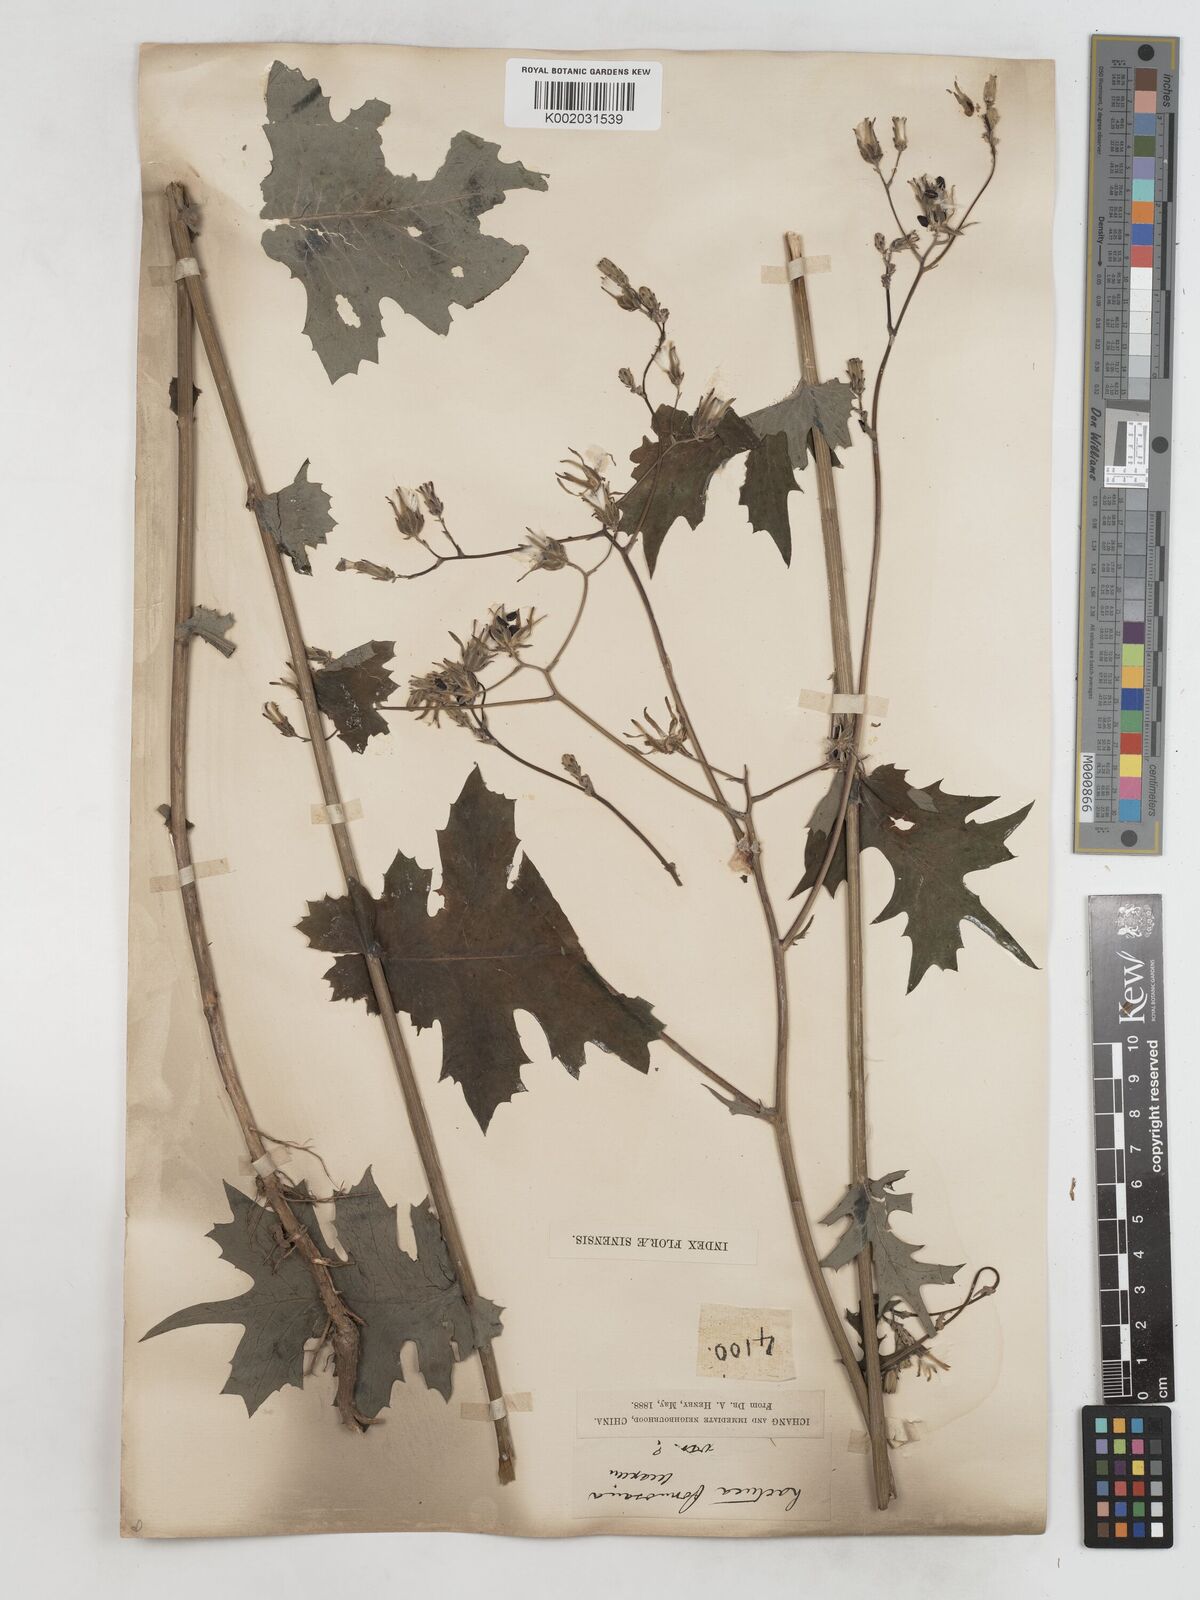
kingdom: Plantae
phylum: Tracheophyta
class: Magnoliopsida
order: Asterales
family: Asteraceae
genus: Lactuca
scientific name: Lactuca formosana
